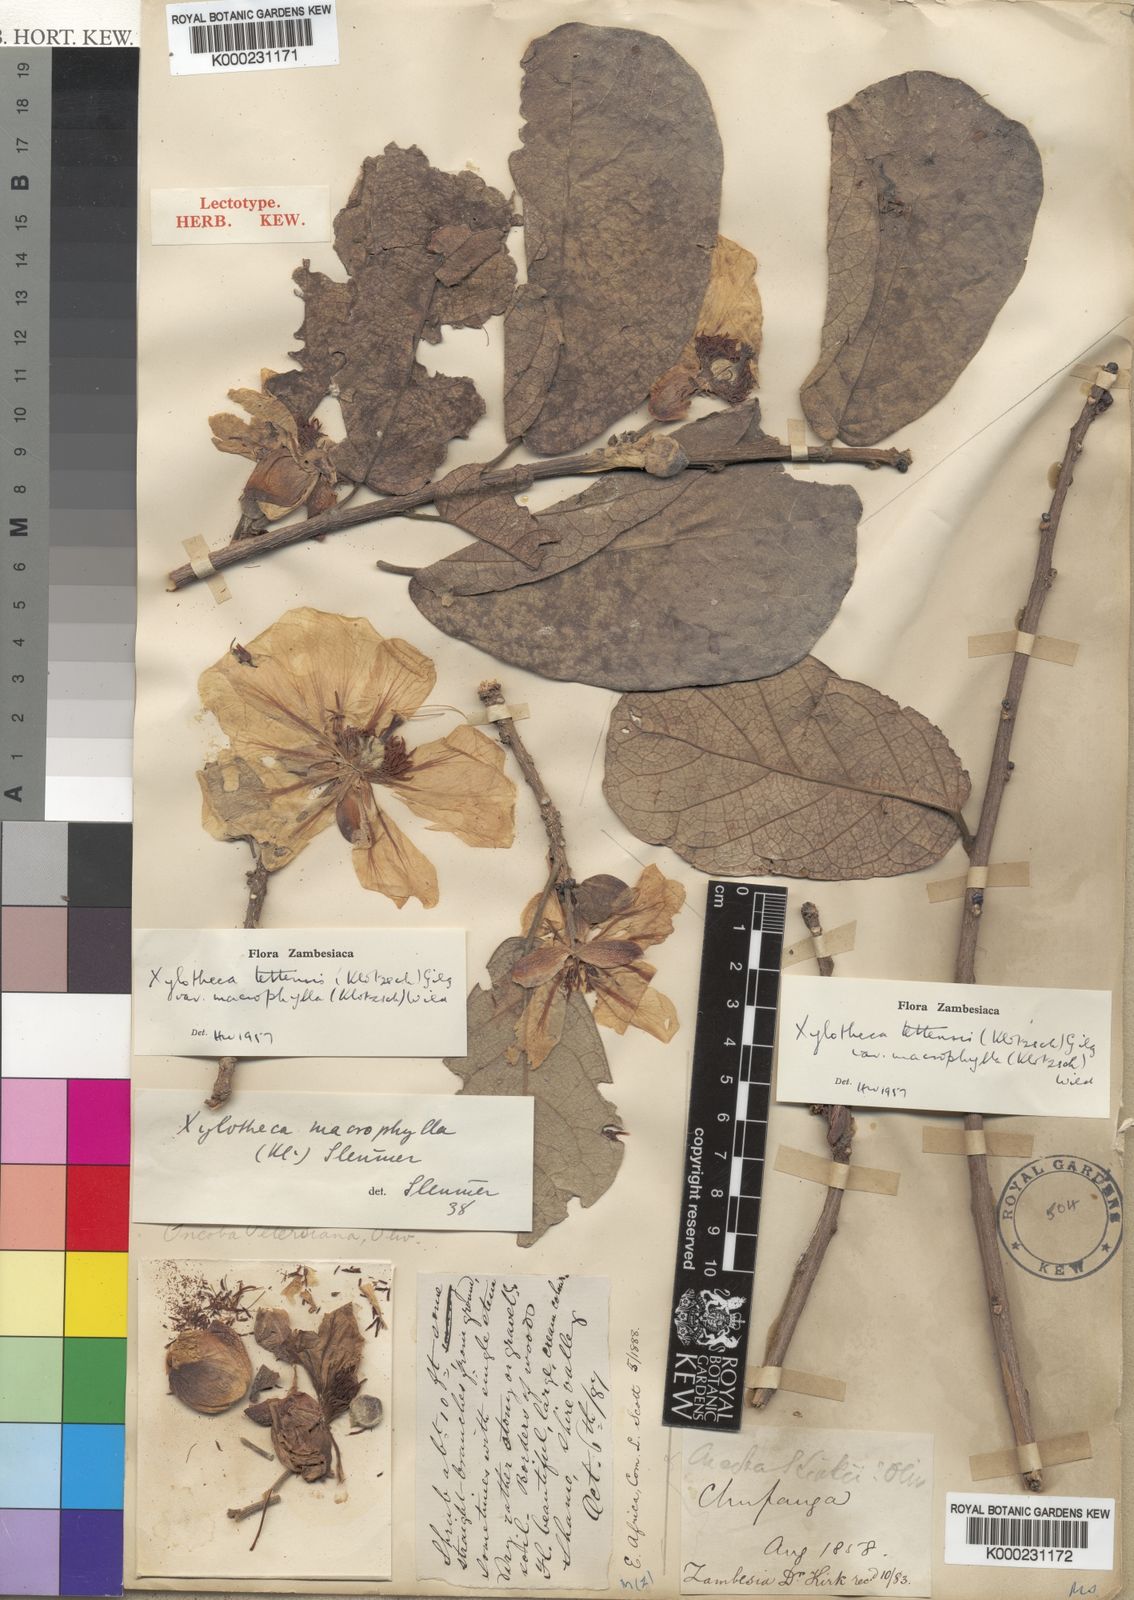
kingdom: Plantae
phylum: Tracheophyta
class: Magnoliopsida
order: Malpighiales
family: Achariaceae
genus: Xylotheca
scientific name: Xylotheca tettensis
